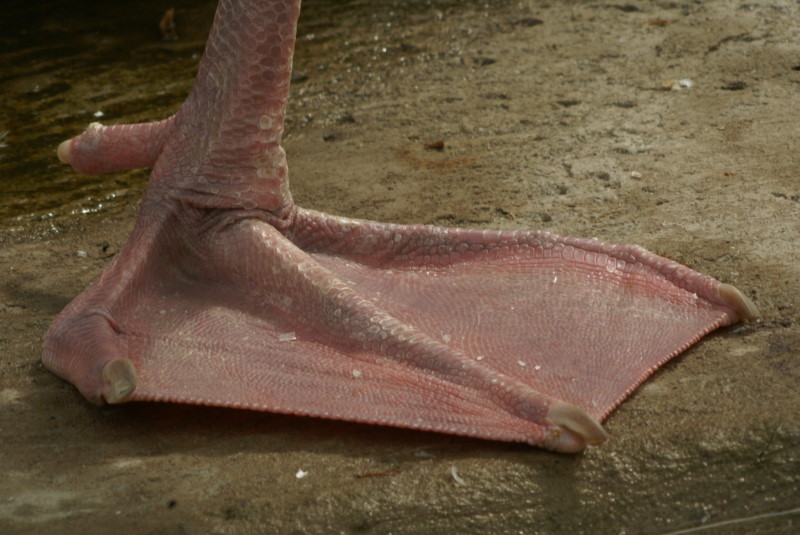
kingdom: Animalia
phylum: Chordata
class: Aves
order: Anseriformes
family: Anatidae
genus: Cygnus
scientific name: Cygnus olor
